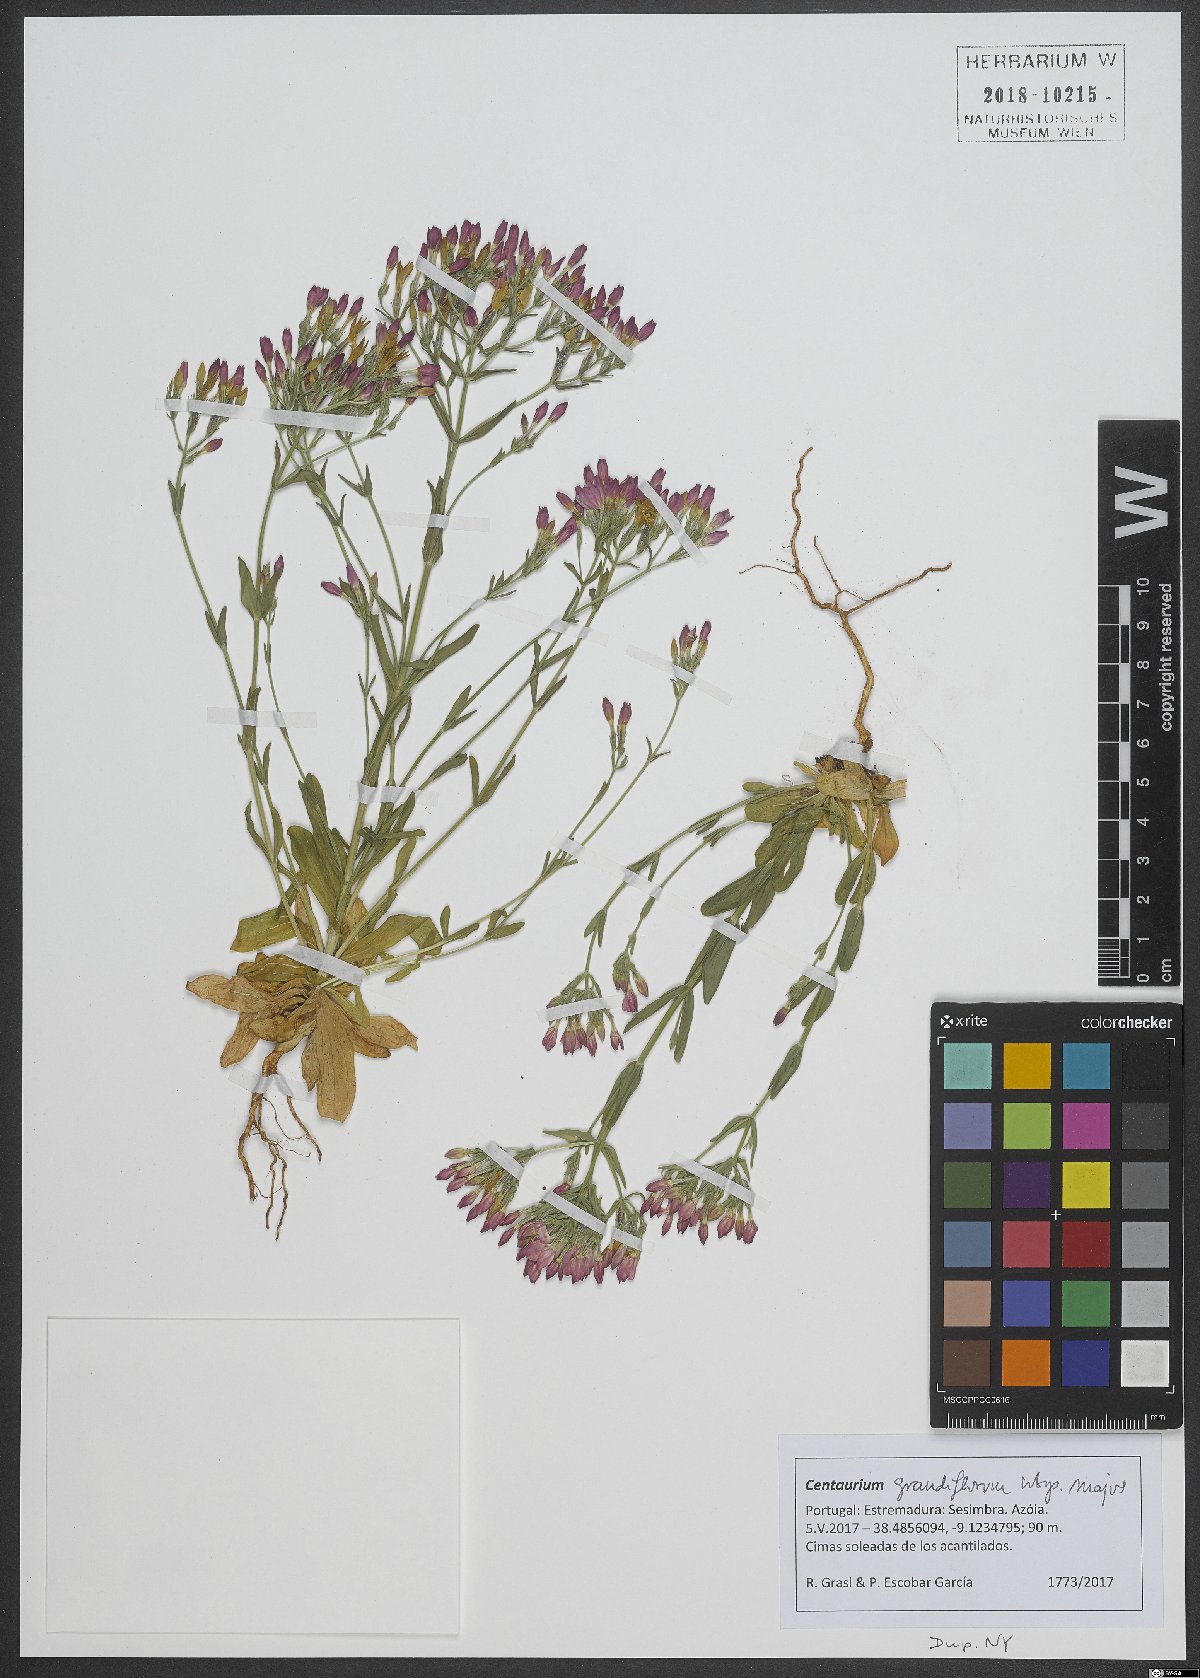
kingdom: Plantae
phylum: Tracheophyta
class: Magnoliopsida
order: Gentianales
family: Gentianaceae
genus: Centaurium
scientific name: Centaurium grandiflorum
